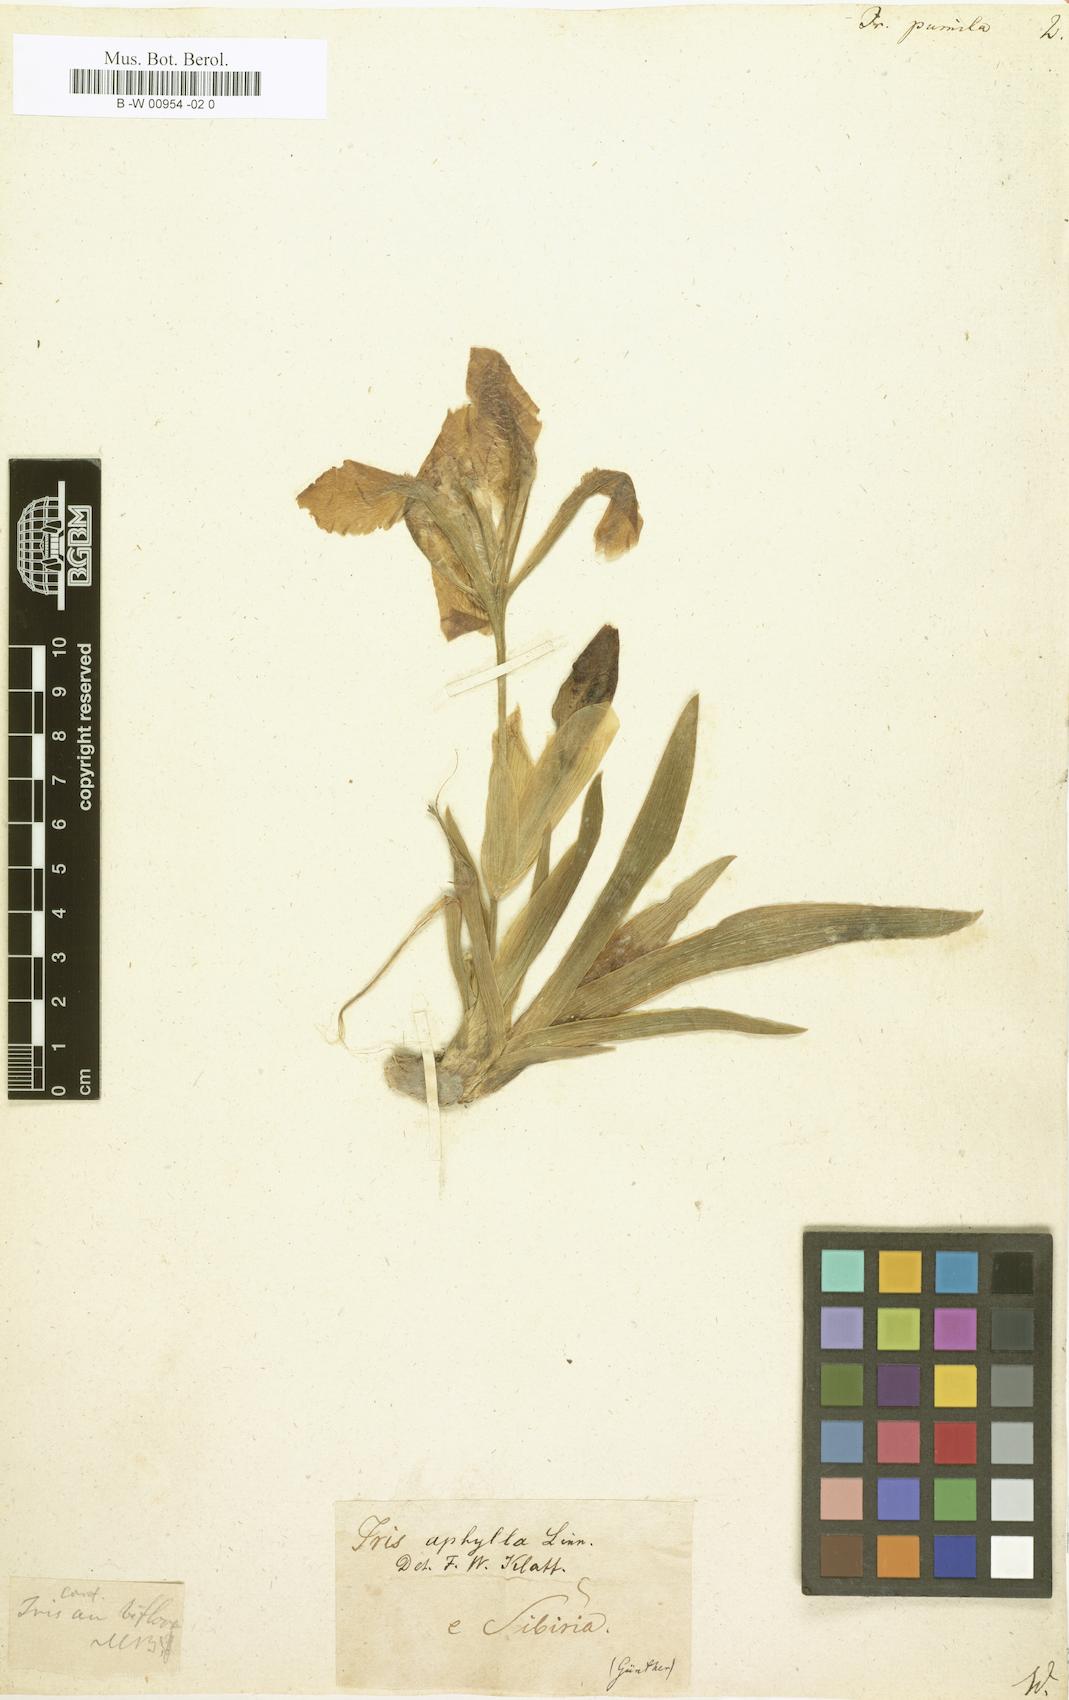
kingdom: Plantae
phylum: Tracheophyta
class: Liliopsida
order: Asparagales
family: Iridaceae
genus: Iris
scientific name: Iris pumila
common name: Dwarf iris
